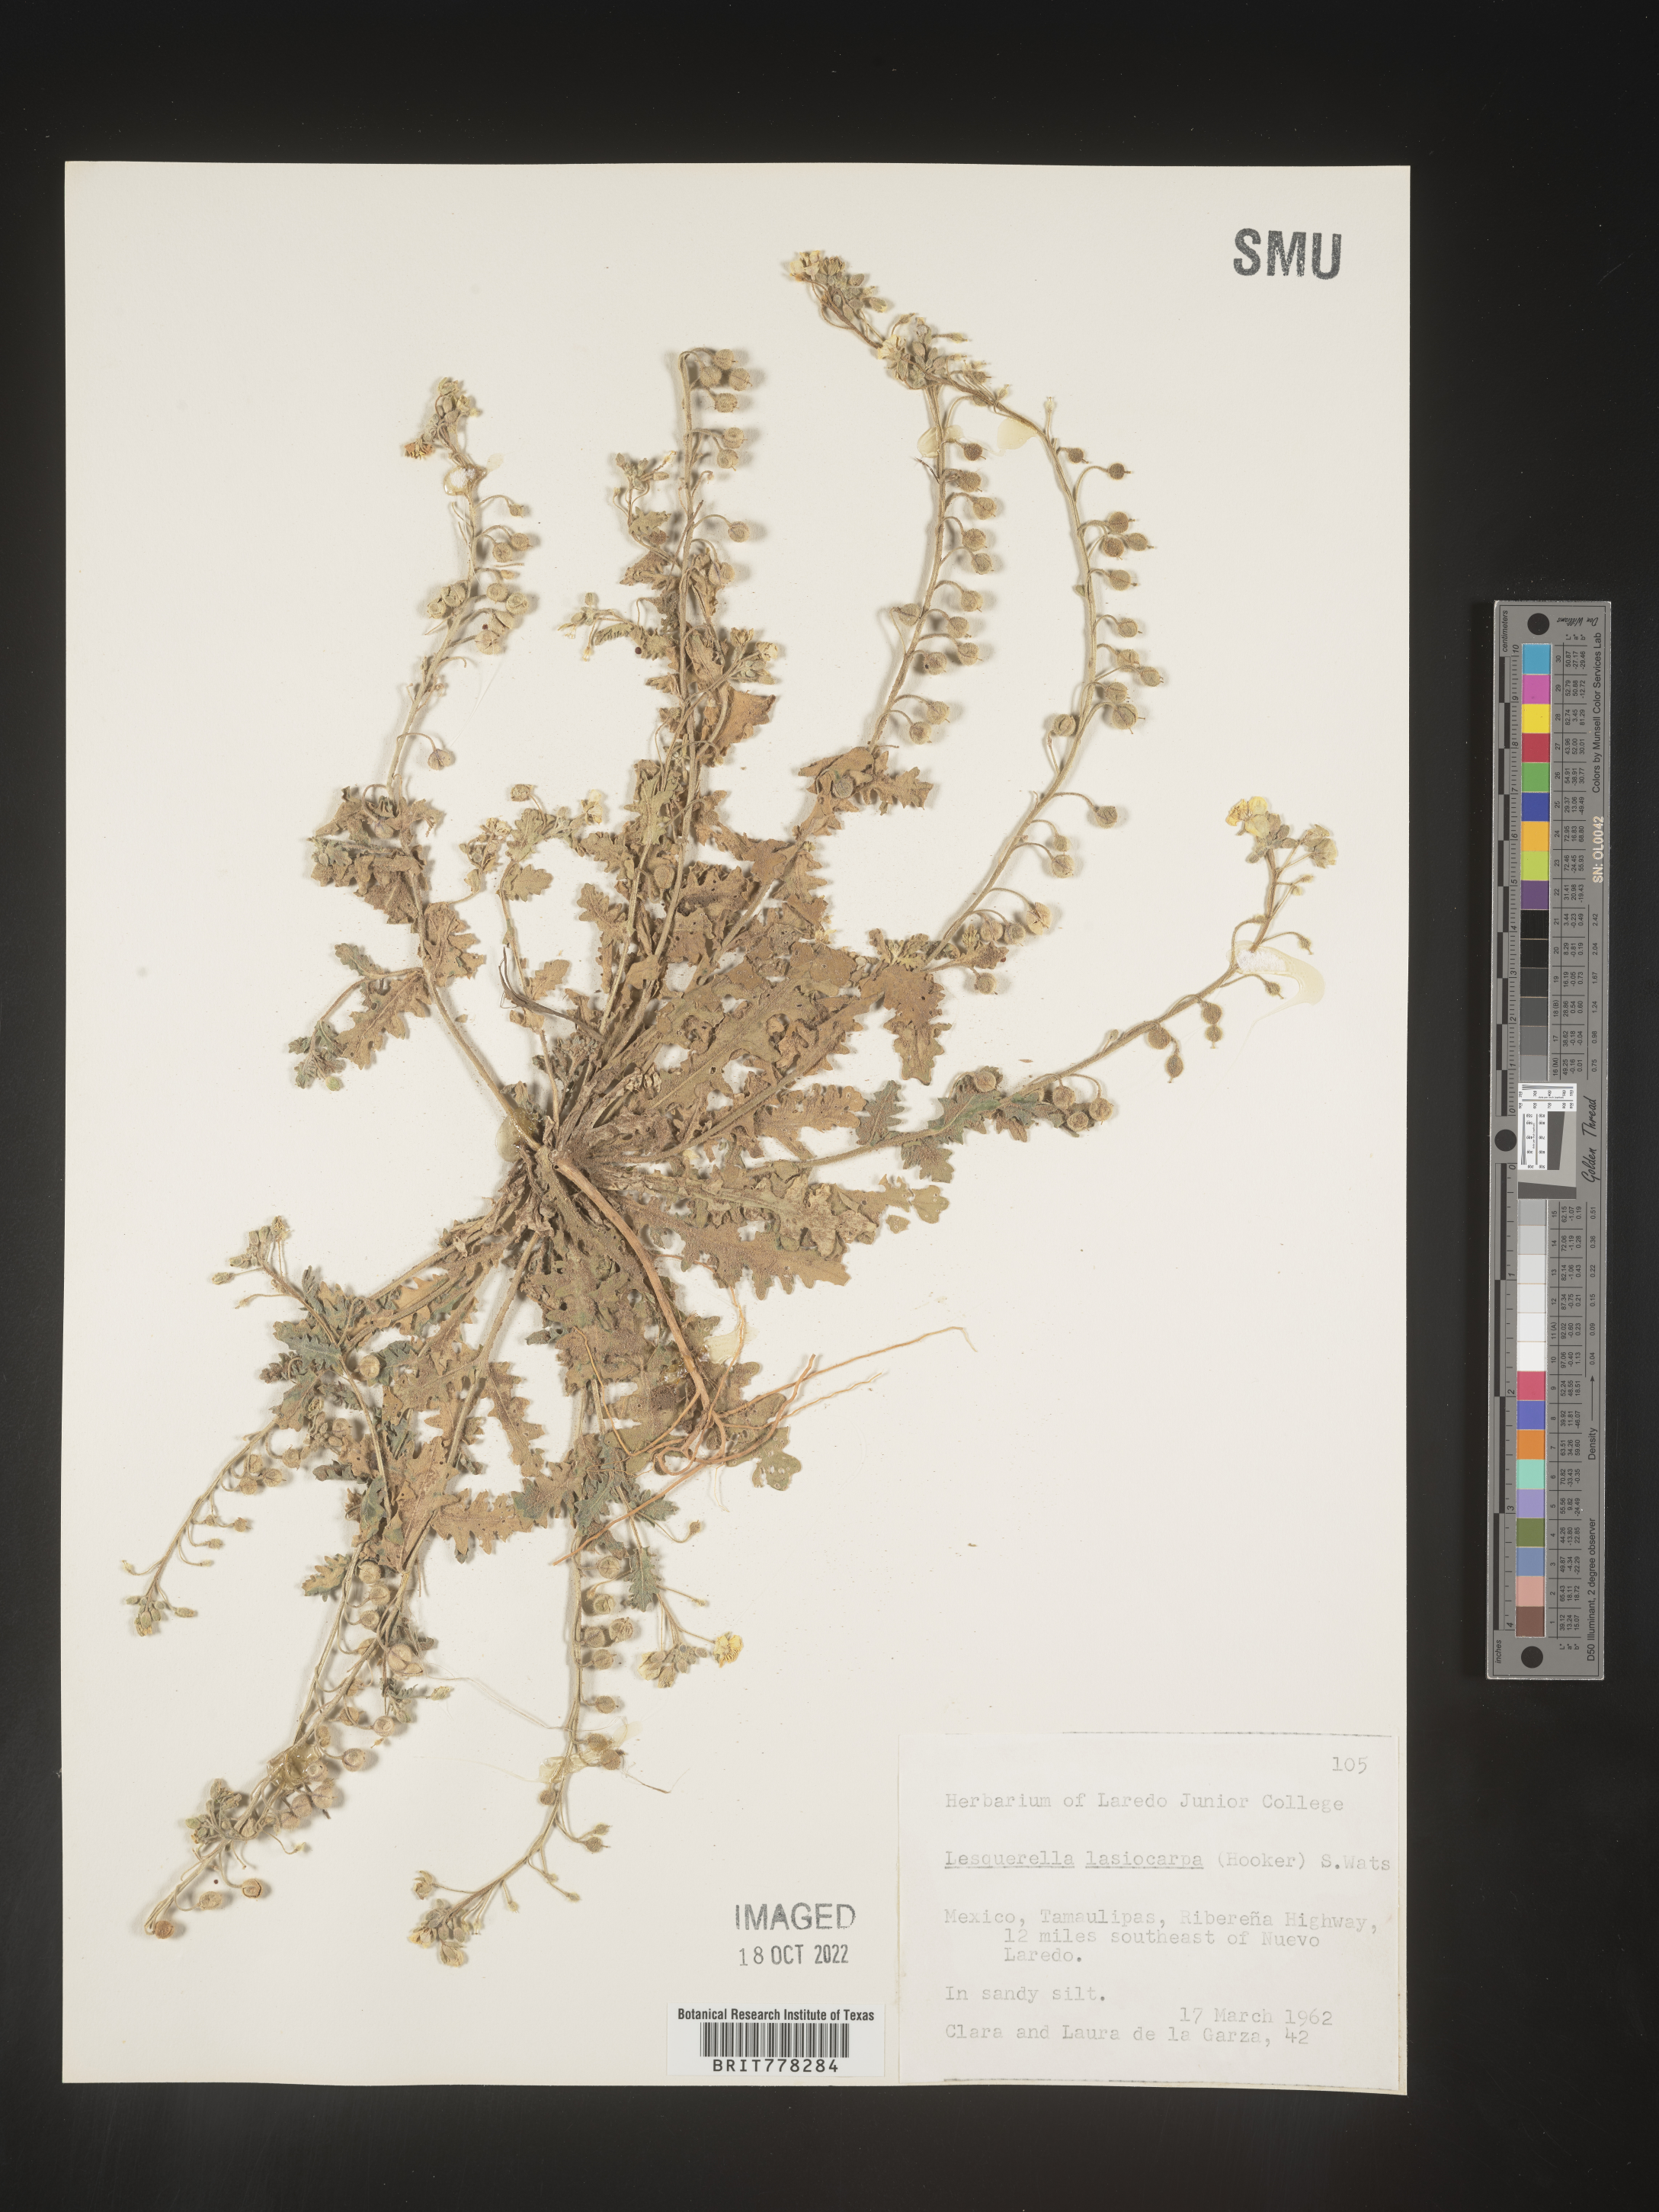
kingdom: Chromista
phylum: Cercozoa
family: Psammonobiotidae
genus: Lesquerella
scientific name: Lesquerella
